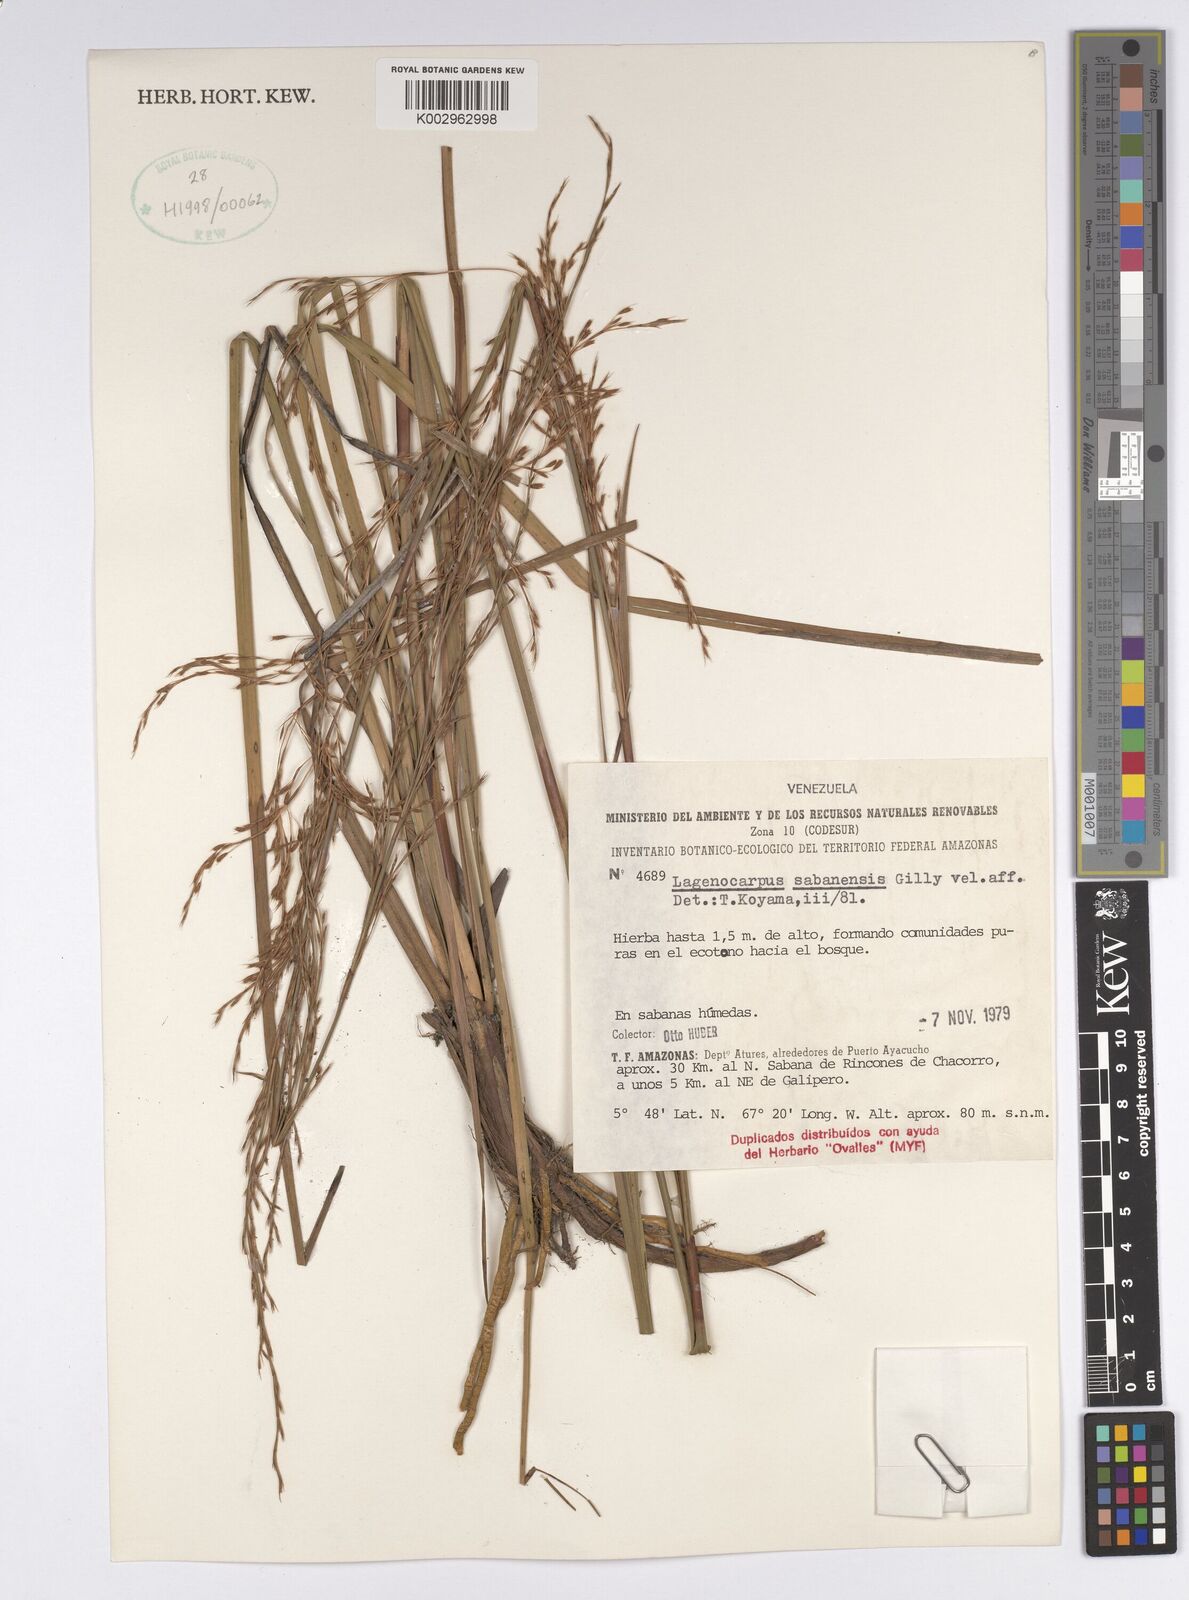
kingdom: Plantae
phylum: Tracheophyta
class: Liliopsida
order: Poales
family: Cyperaceae
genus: Lagenocarpus
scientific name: Lagenocarpus sabanensis
